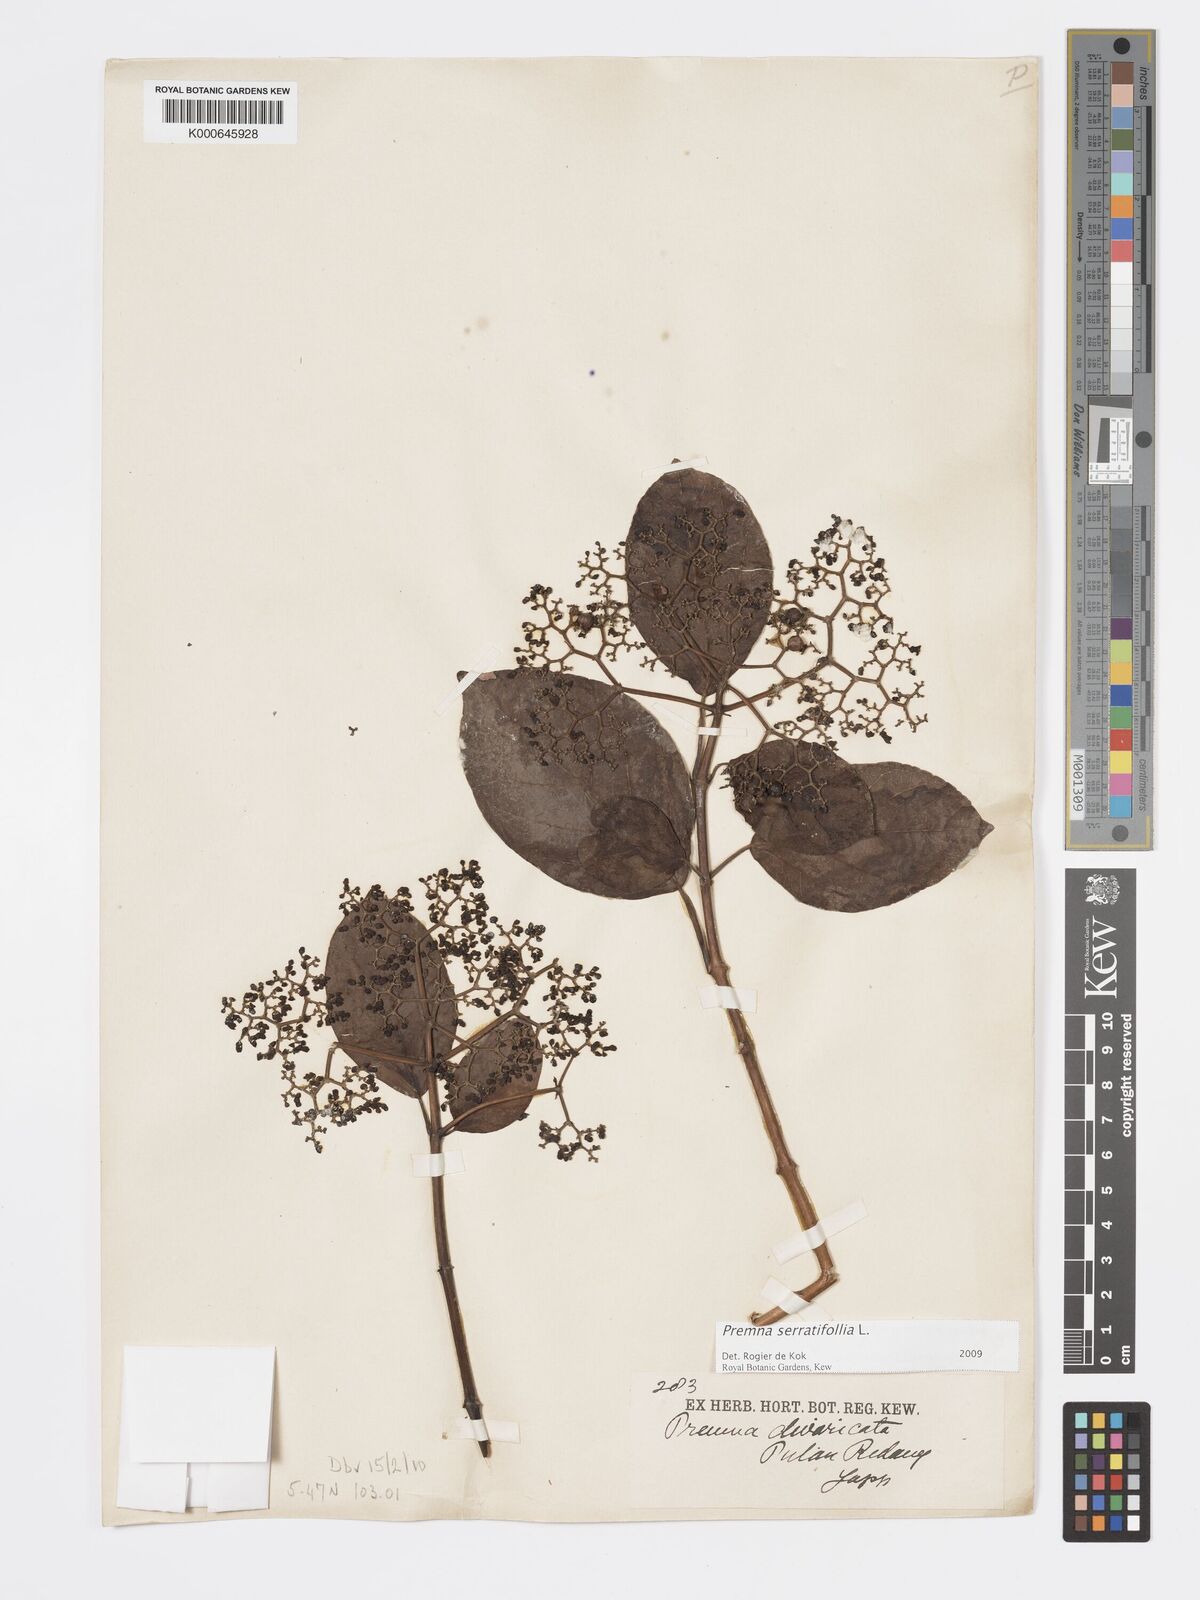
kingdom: Plantae
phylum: Tracheophyta
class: Magnoliopsida
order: Lamiales
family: Lamiaceae
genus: Premna
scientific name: Premna serratifolia
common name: Bastard guelder
